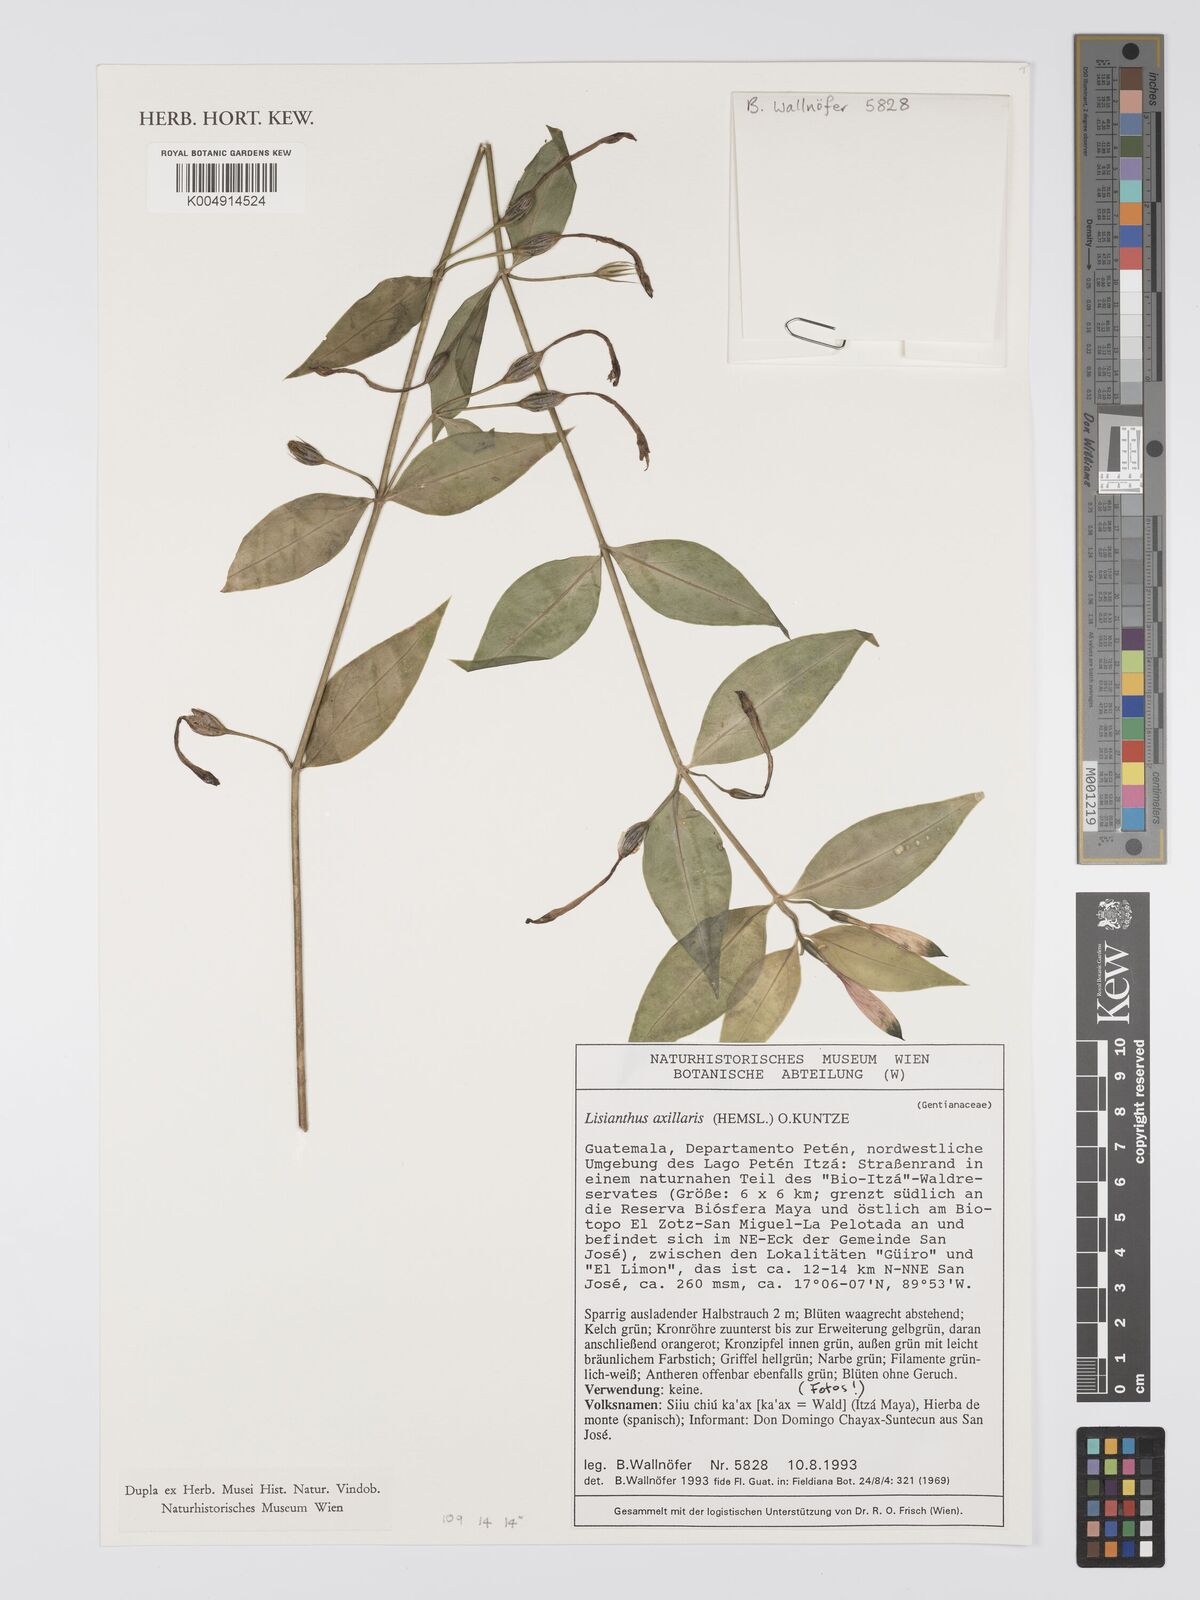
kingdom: Plantae
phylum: Tracheophyta
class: Magnoliopsida
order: Gentianales
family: Gentianaceae
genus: Lisianthius
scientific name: Lisianthius
